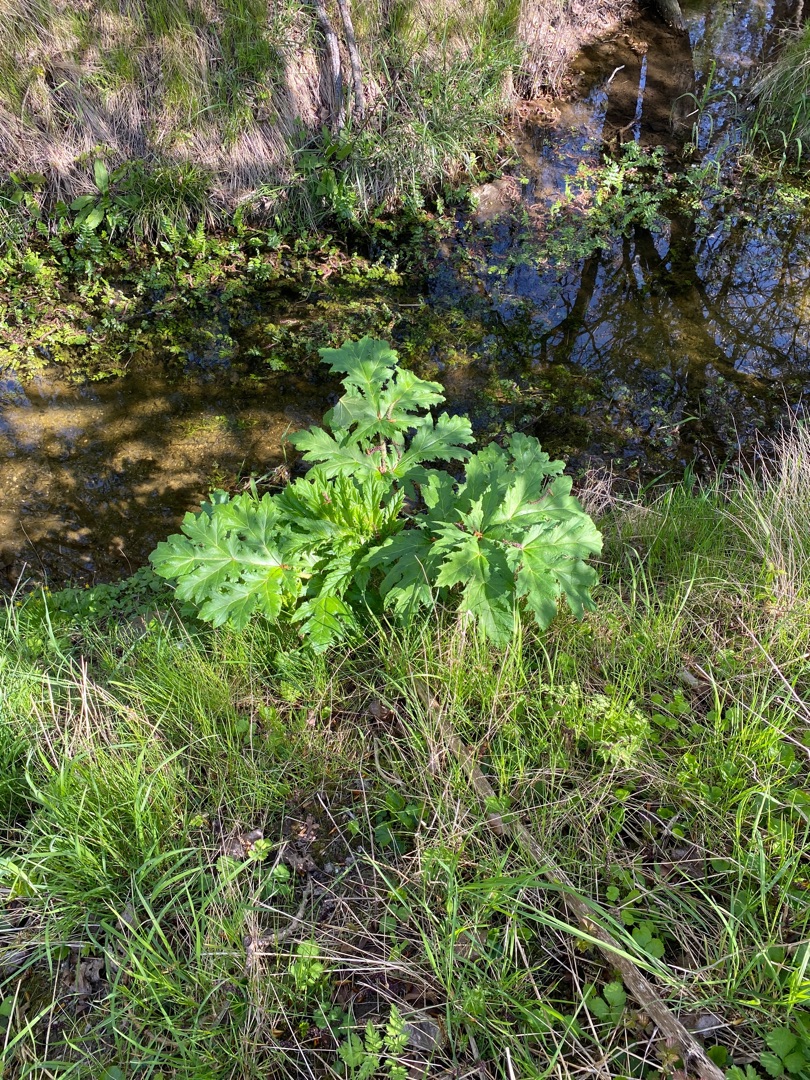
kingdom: Plantae
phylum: Tracheophyta
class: Magnoliopsida
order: Apiales
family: Apiaceae
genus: Heracleum
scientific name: Heracleum mantegazzianum
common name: Kæmpe-bjørneklo
